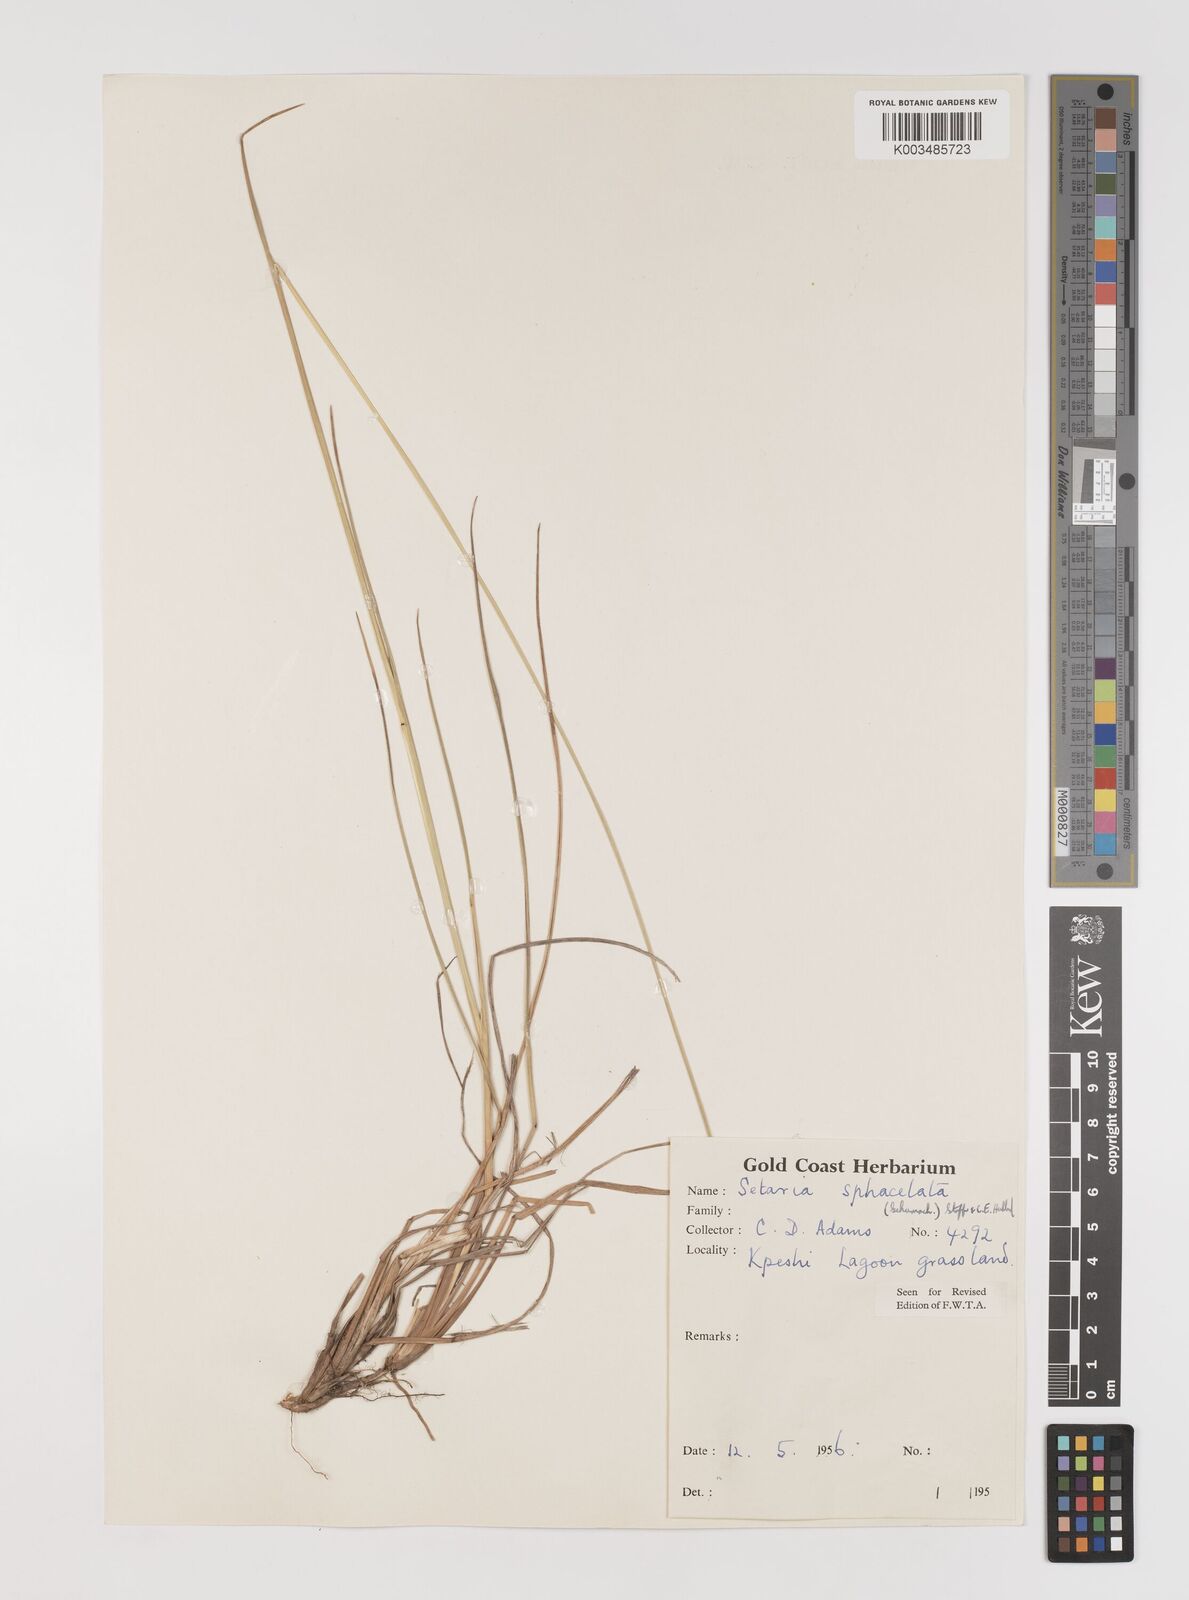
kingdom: Plantae
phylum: Tracheophyta
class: Liliopsida
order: Poales
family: Poaceae
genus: Setaria
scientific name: Setaria sphacelata
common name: African bristlegrass
